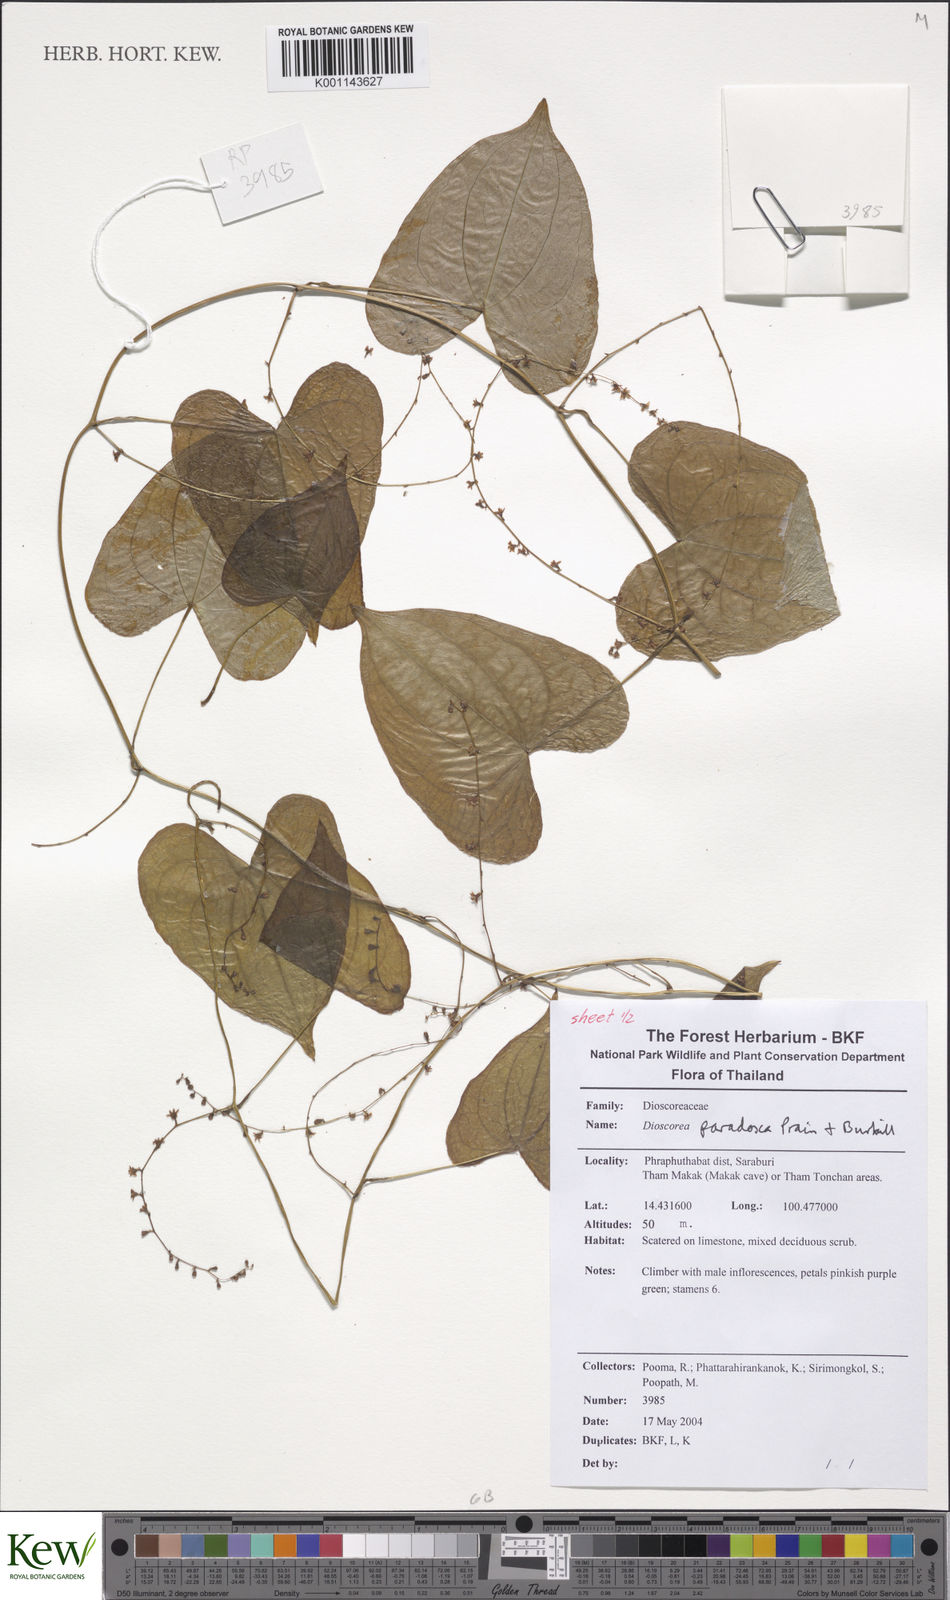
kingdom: Plantae
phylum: Tracheophyta
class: Liliopsida
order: Dioscoreales
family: Dioscoreaceae
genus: Dioscorea
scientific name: Dioscorea paradoxa
